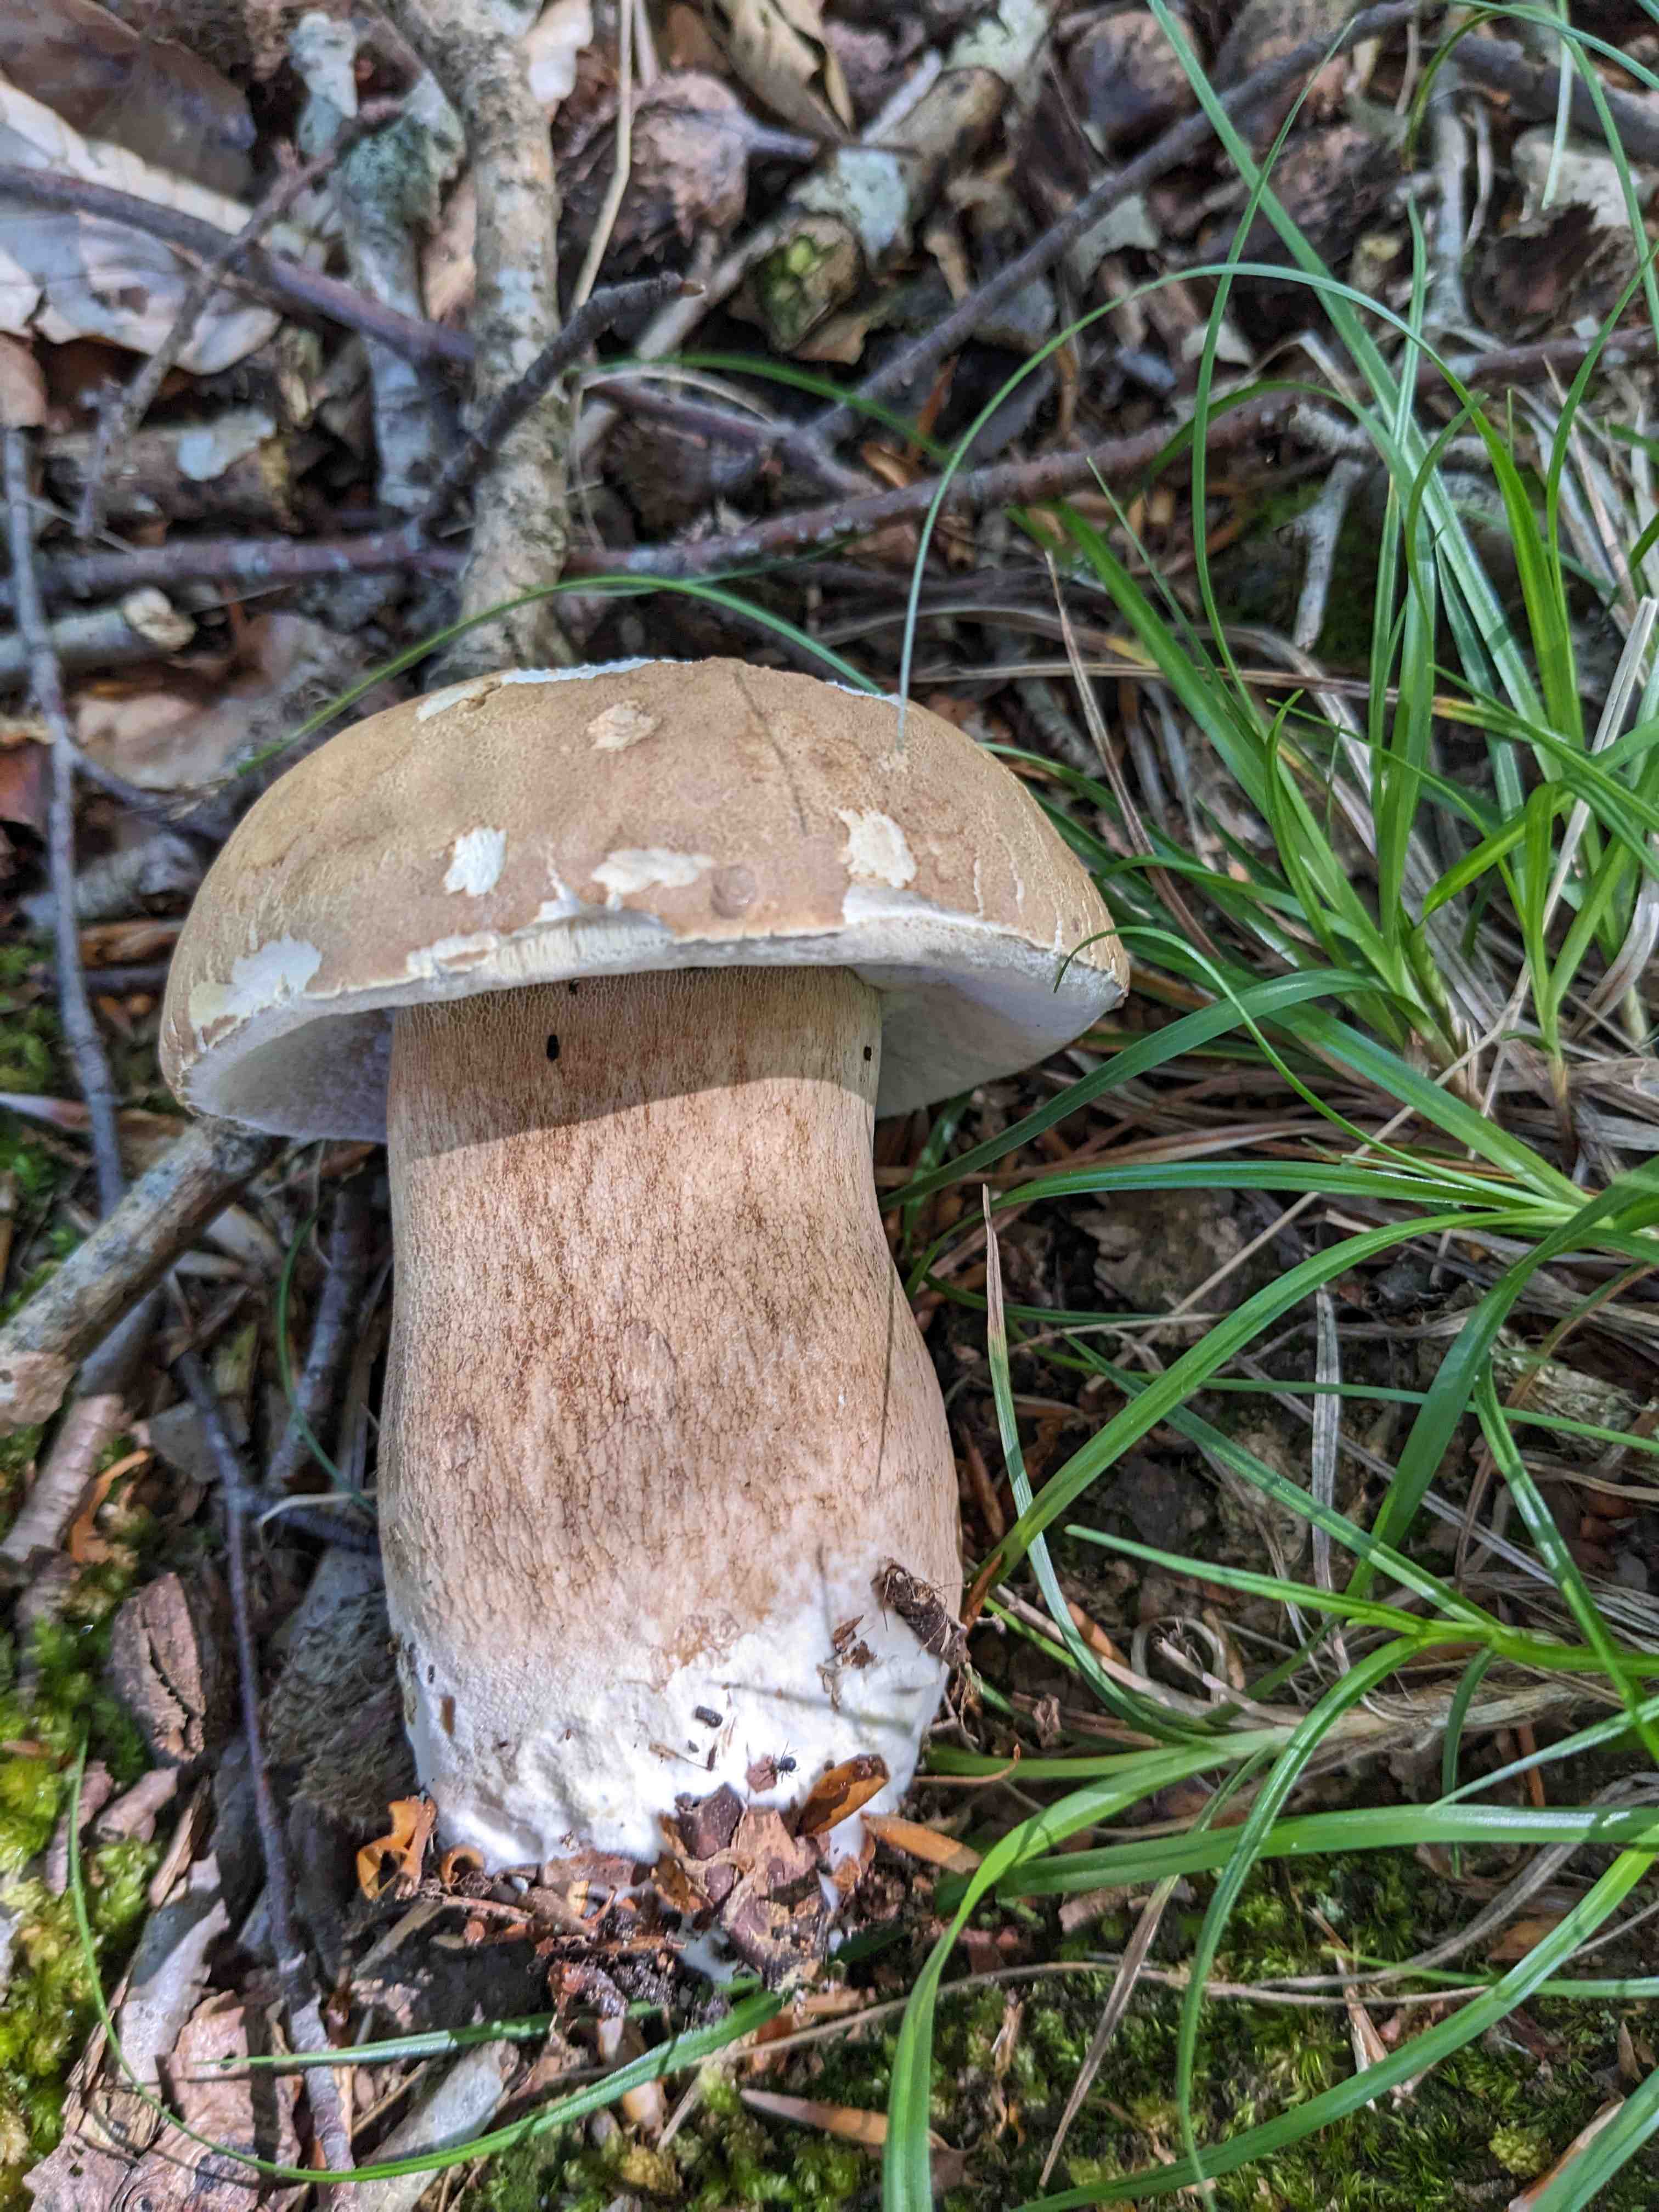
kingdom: Fungi
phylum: Basidiomycota
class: Agaricomycetes
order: Boletales
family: Boletaceae
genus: Boletus
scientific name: Boletus reticulatus
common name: sommer-rørhat
